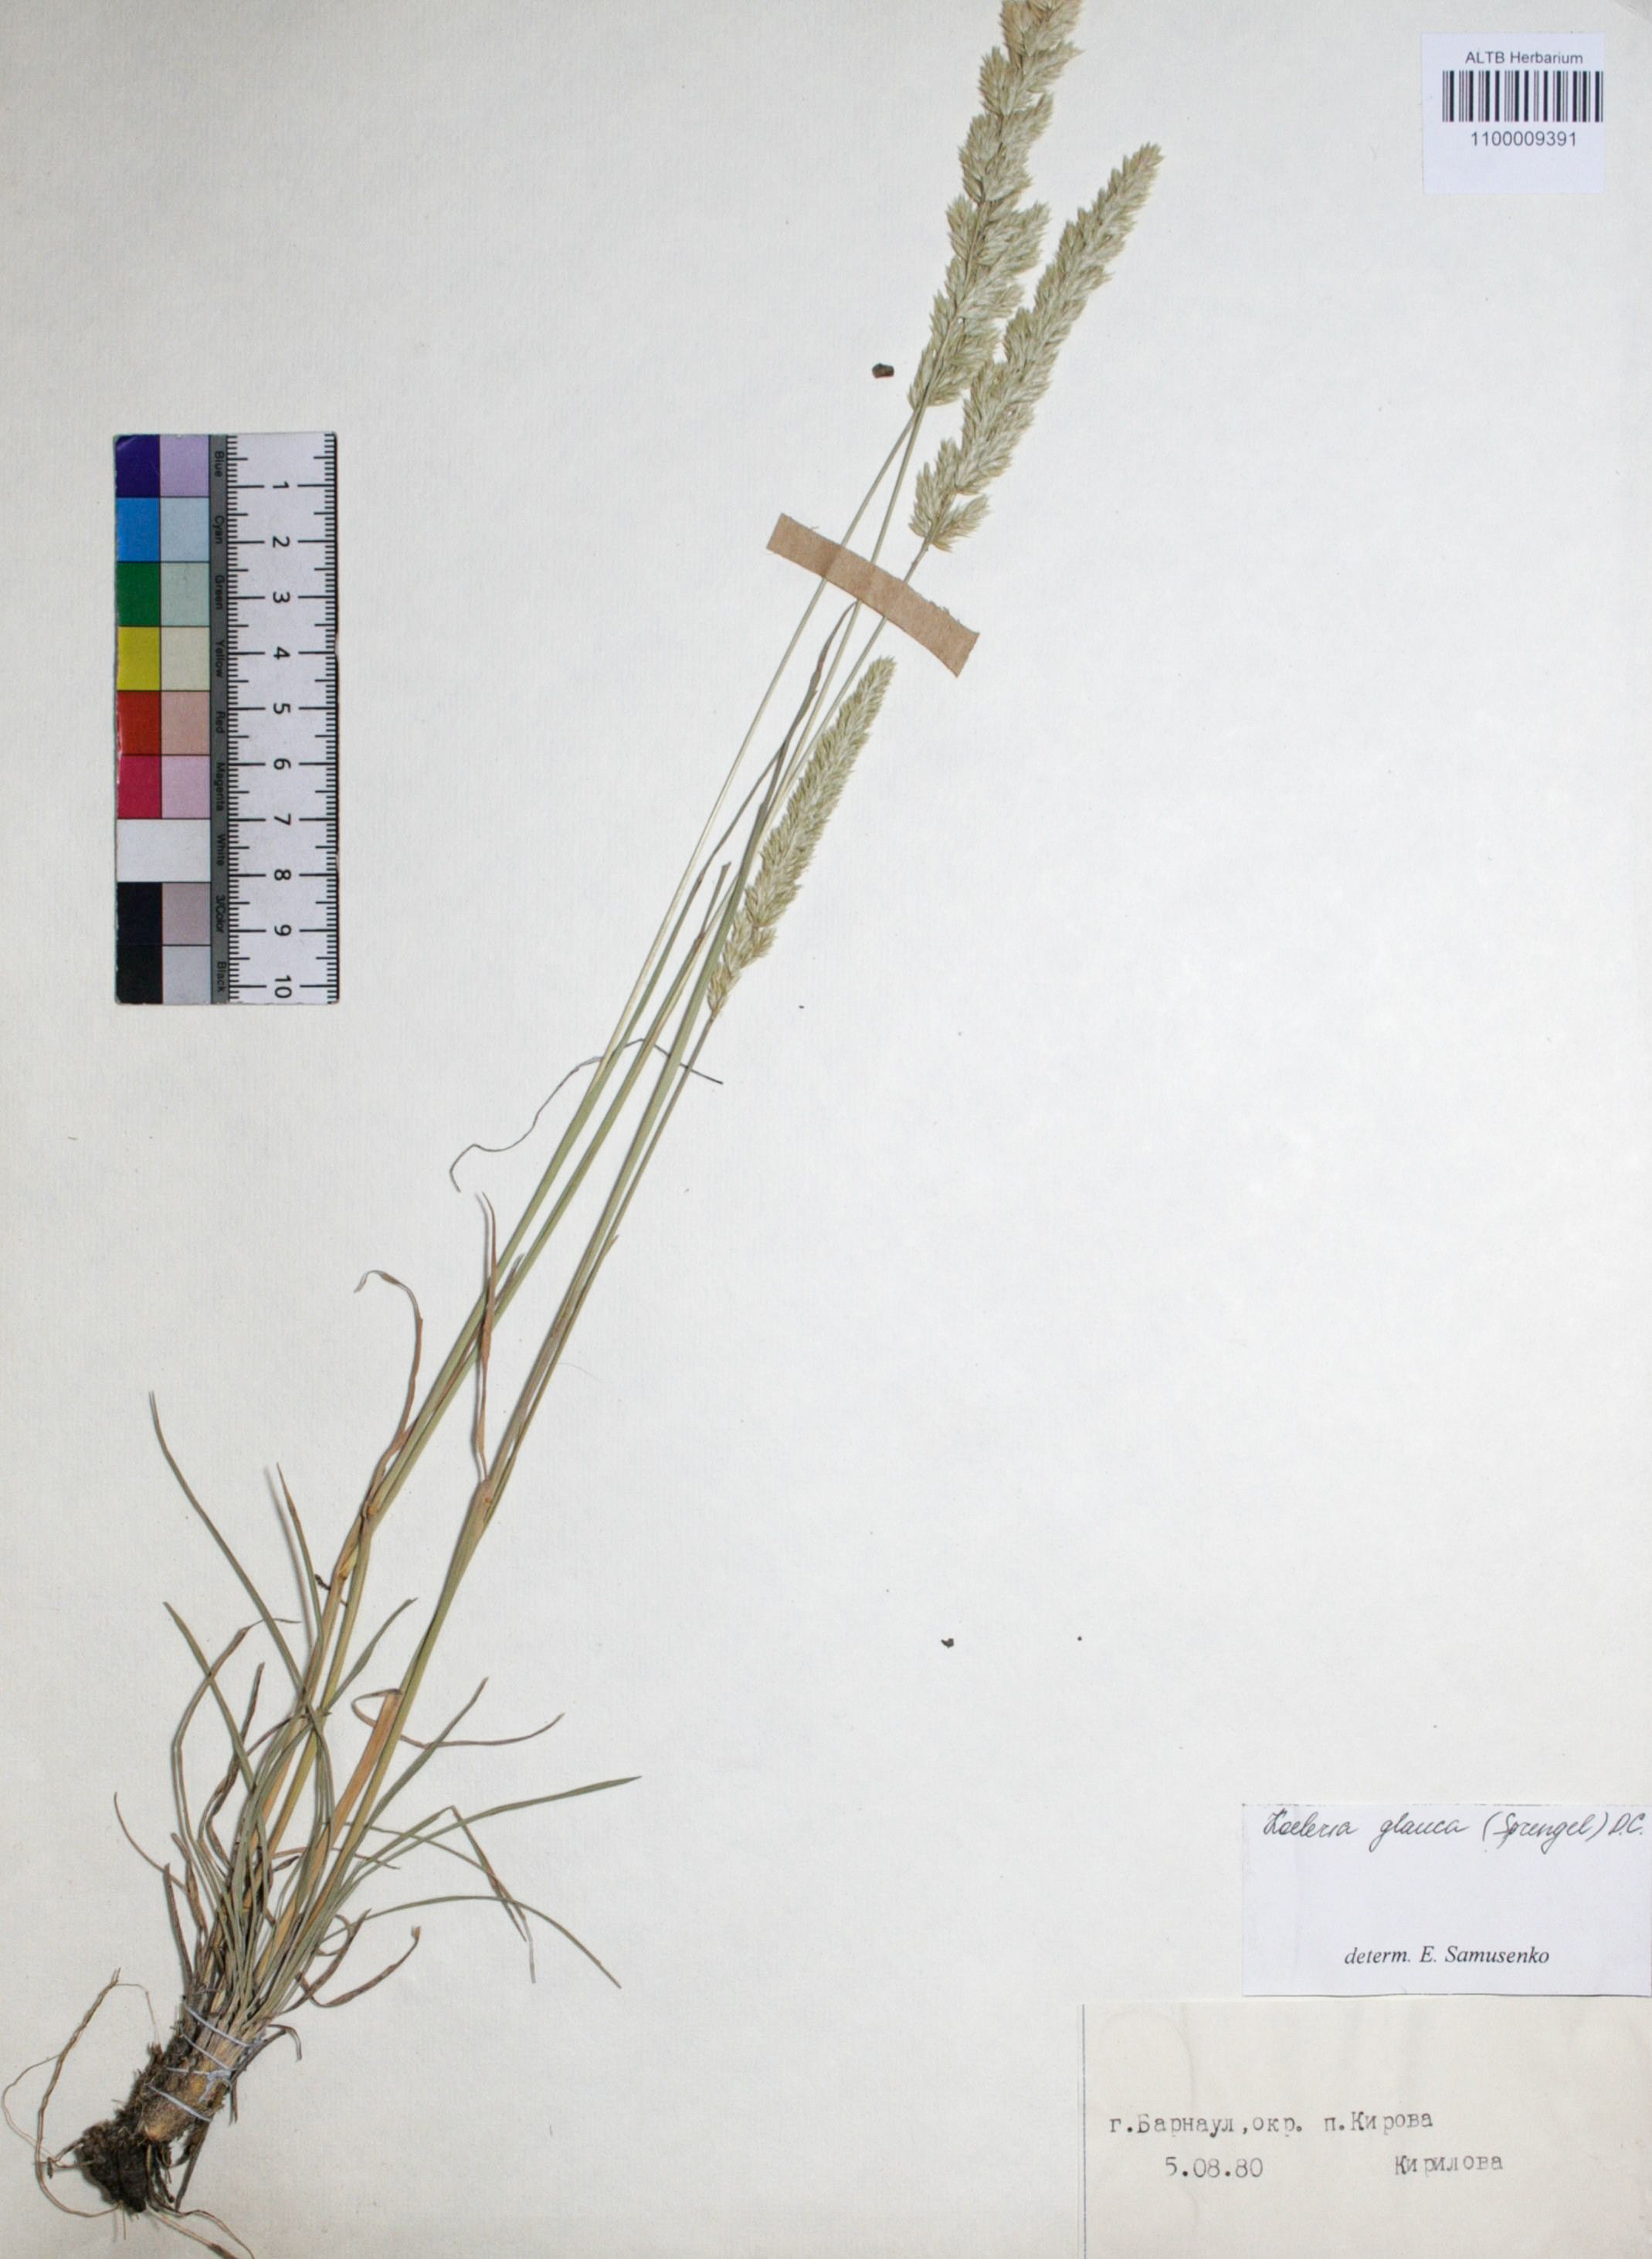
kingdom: Plantae
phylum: Tracheophyta
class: Liliopsida
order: Poales
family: Poaceae
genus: Koeleria
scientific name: Koeleria glauca
